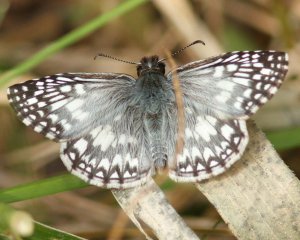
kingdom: Animalia
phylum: Arthropoda
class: Insecta
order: Lepidoptera
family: Hesperiidae
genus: Pyrgus
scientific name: Pyrgus oileus
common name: Tropical Checkered-Skipper
